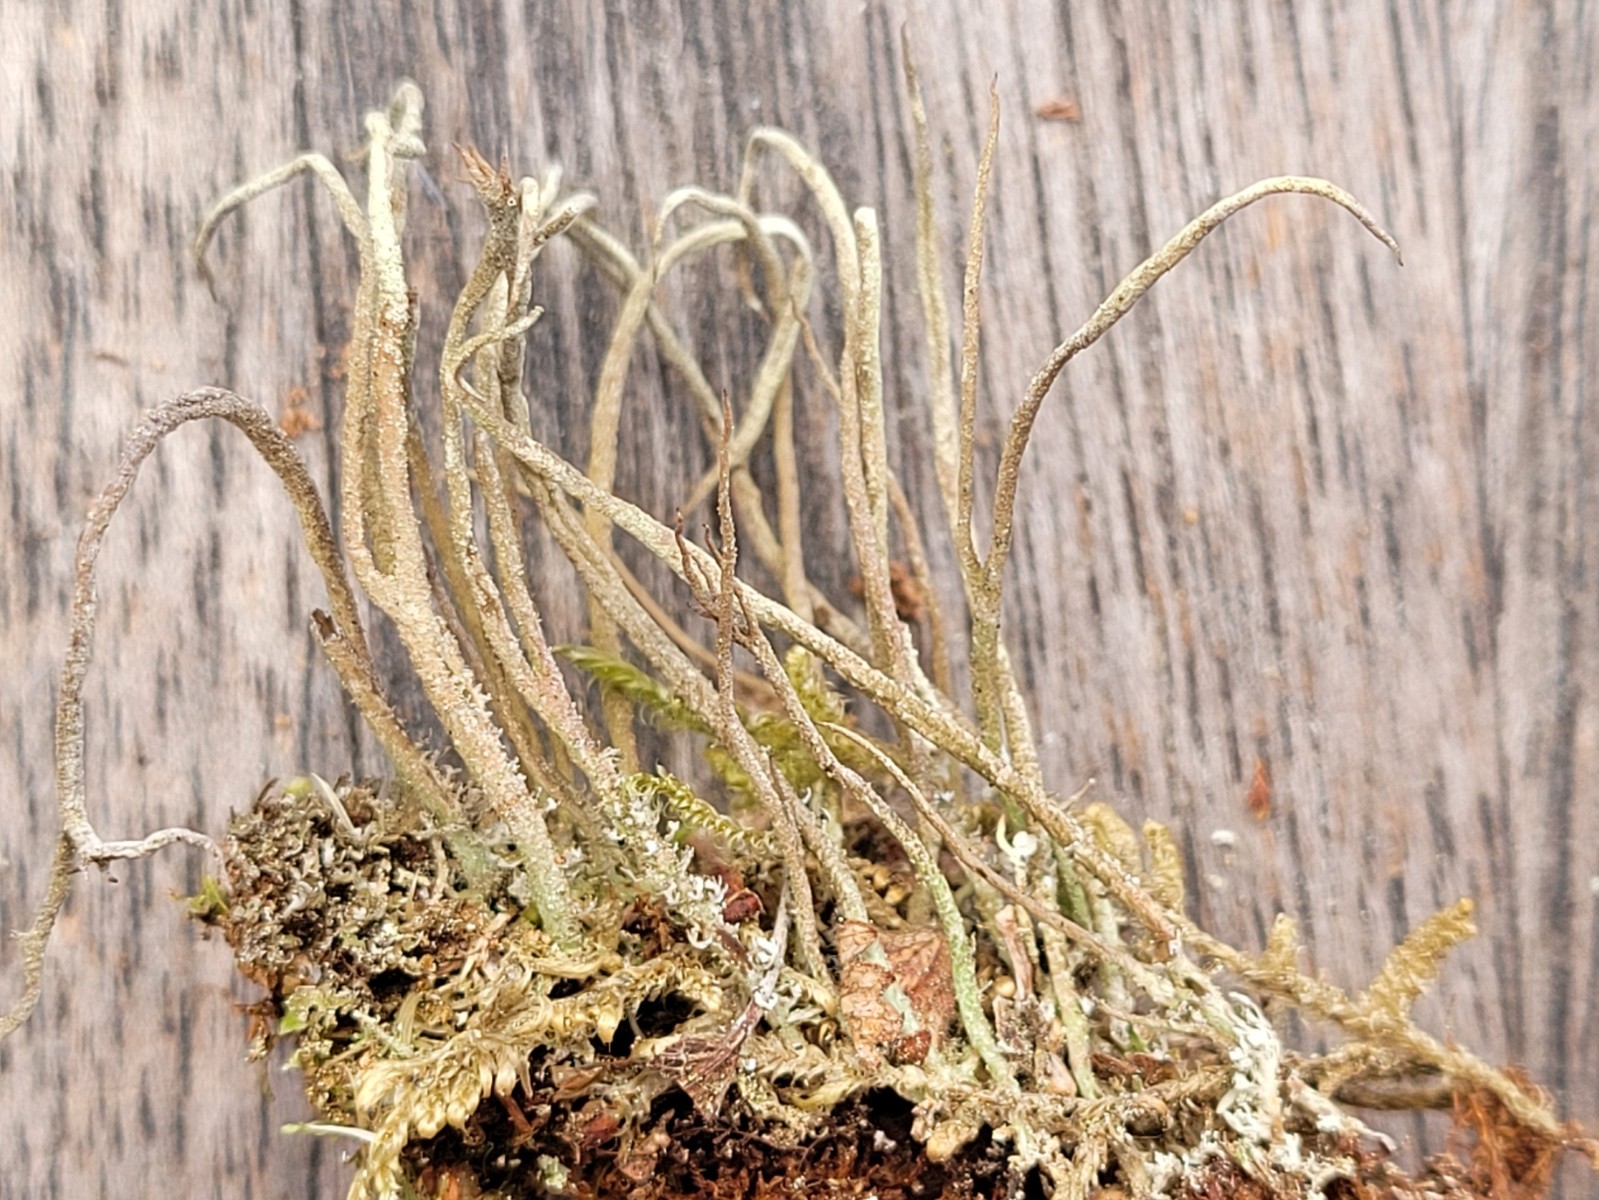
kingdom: Fungi
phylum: Ascomycota
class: Lecanoromycetes
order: Lecanorales
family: Cladoniaceae
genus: Cladonia
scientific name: Cladonia glauca
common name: grågrøn bægerlav
